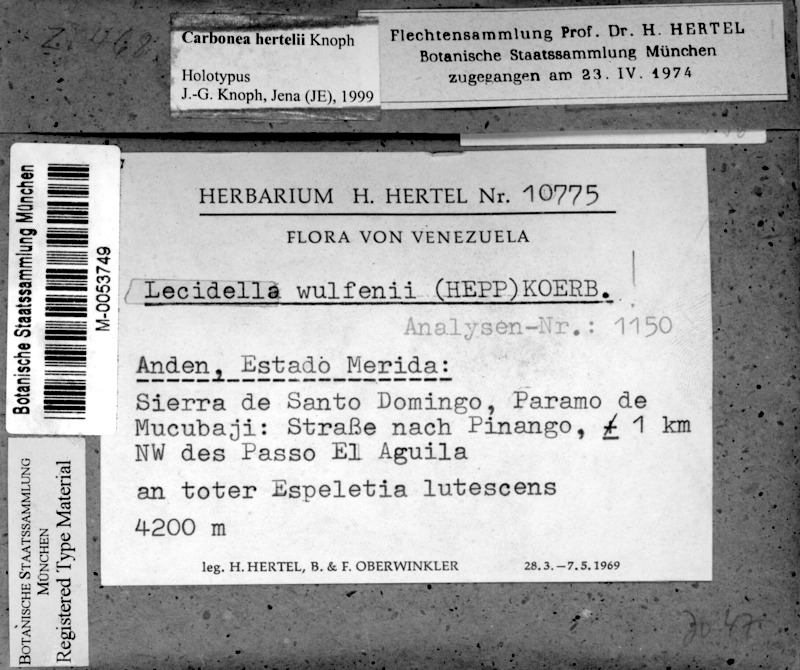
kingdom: Fungi
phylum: Ascomycota
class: Lecanoromycetes
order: Lecanorales
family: Lecanoraceae
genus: Carbonea
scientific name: Carbonea
